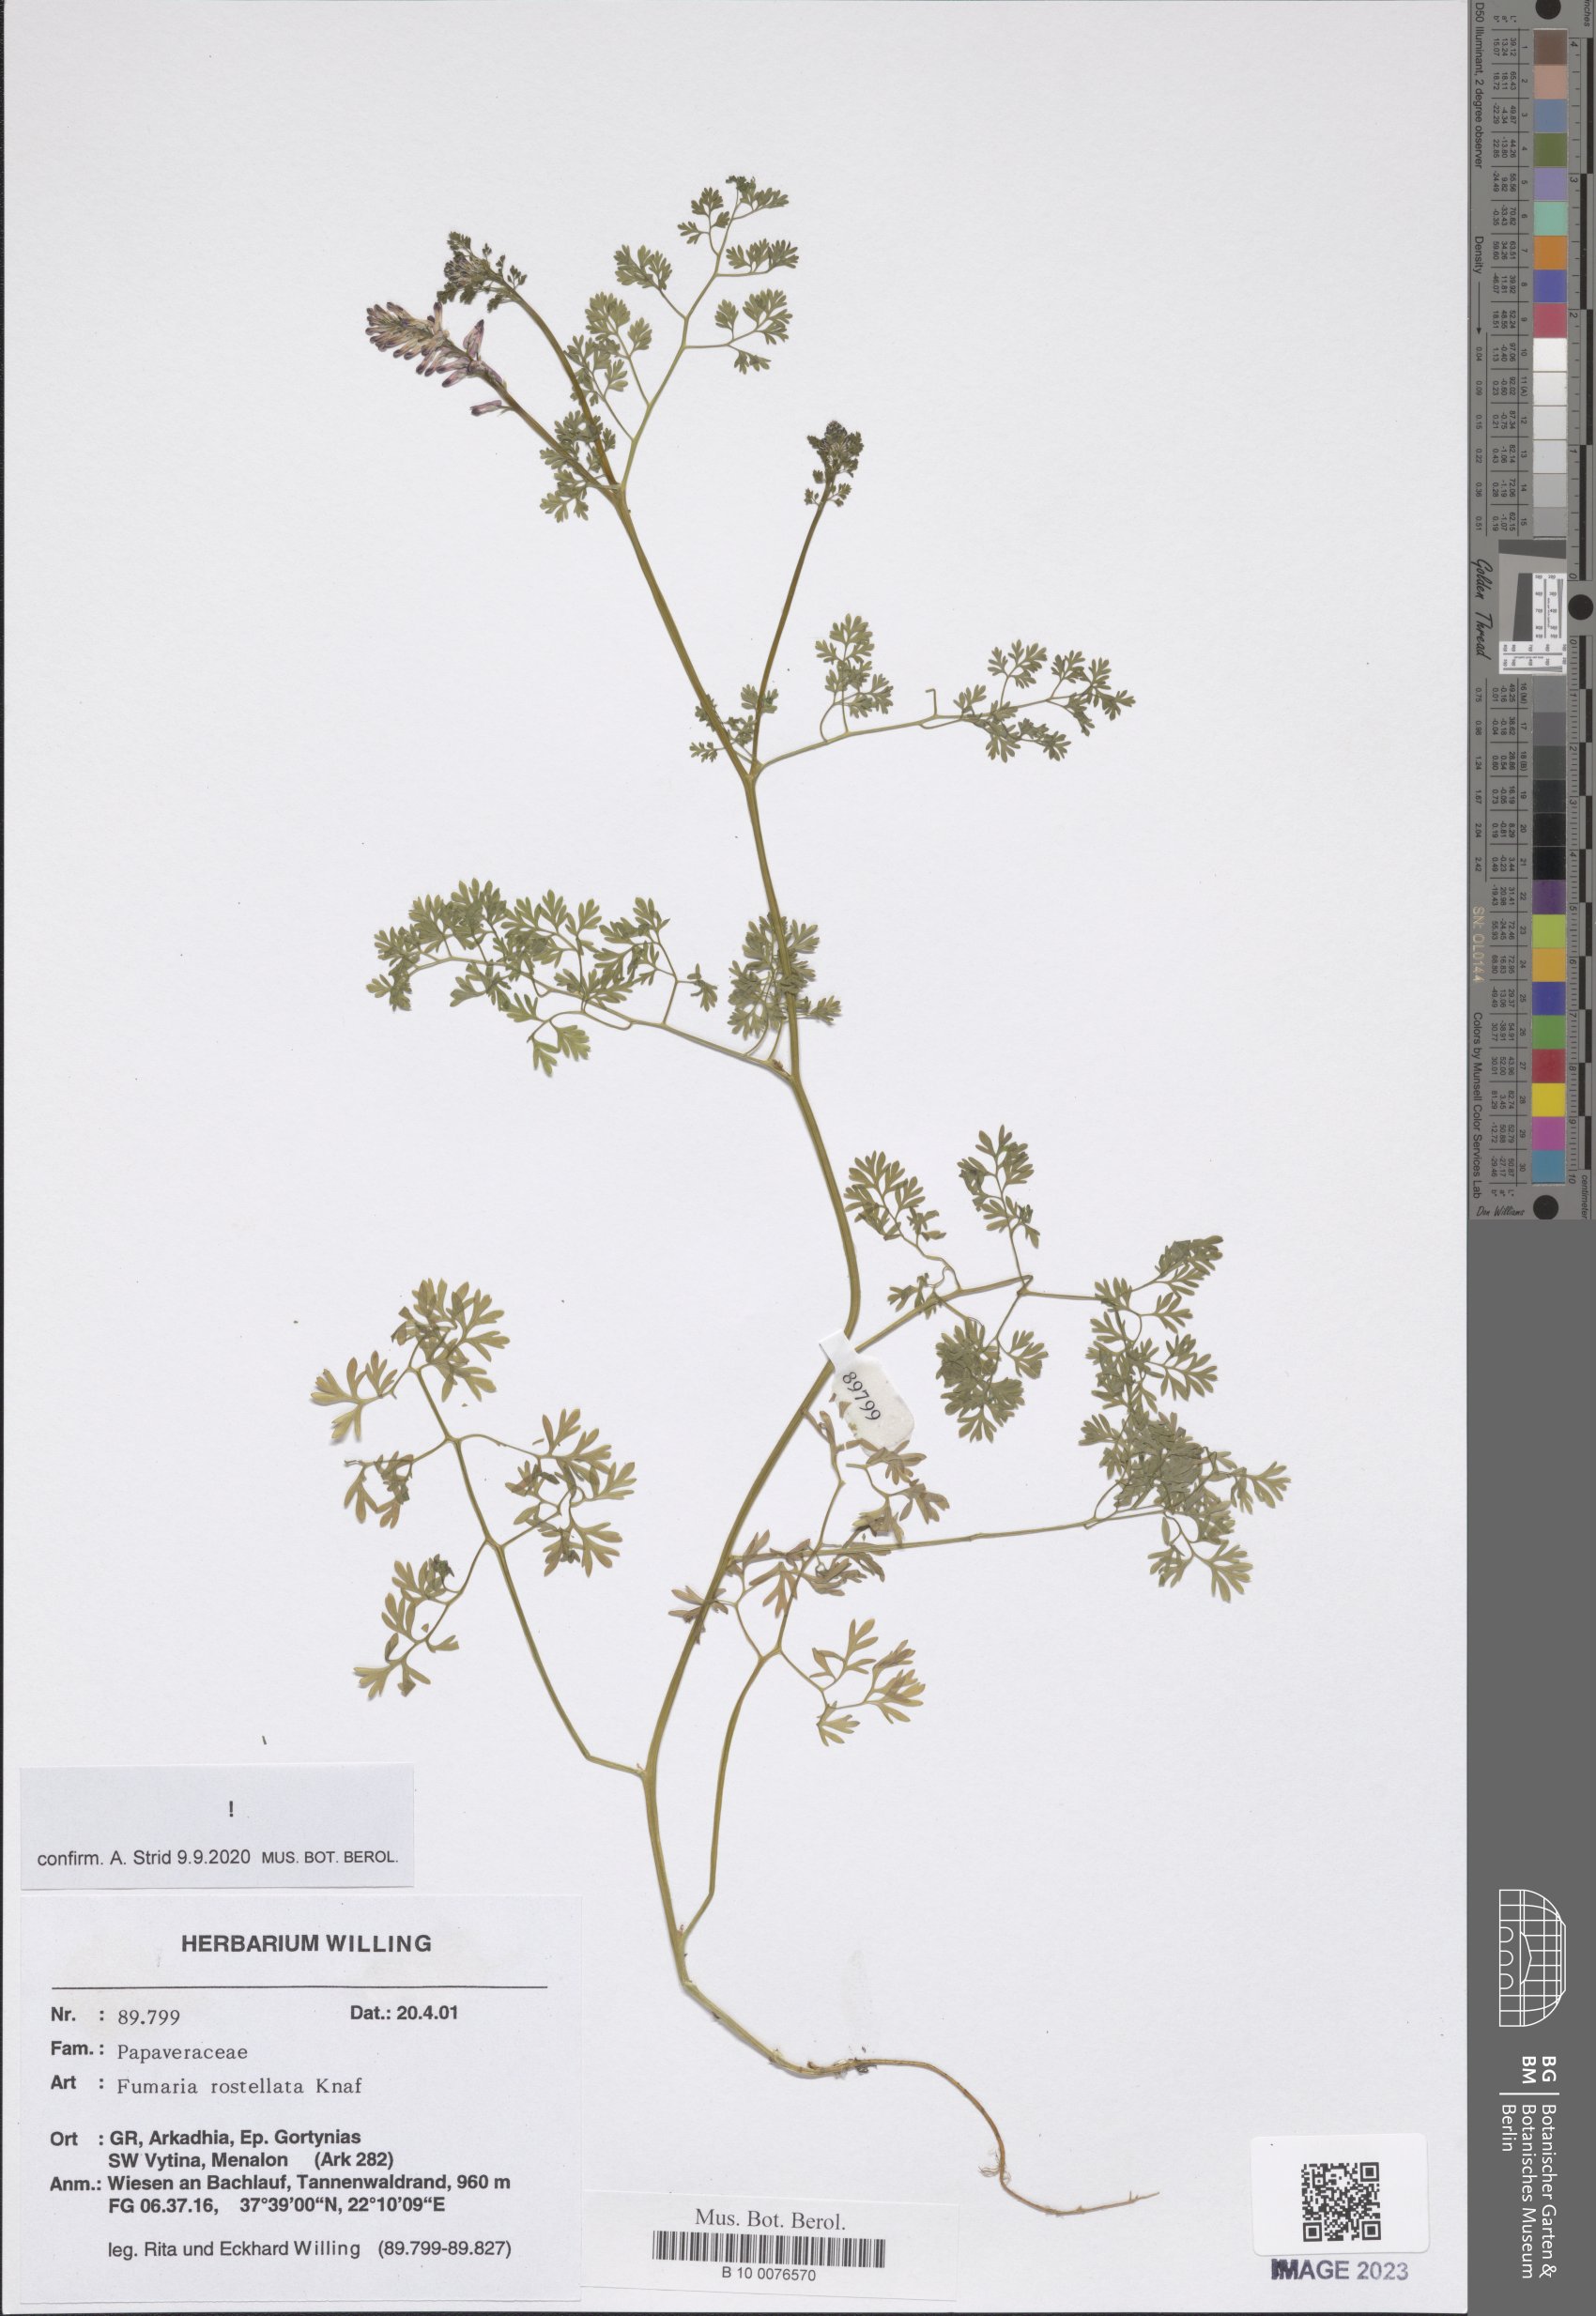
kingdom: Plantae
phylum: Tracheophyta
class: Magnoliopsida
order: Ranunculales
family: Papaveraceae
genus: Fumaria
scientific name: Fumaria rostellata
